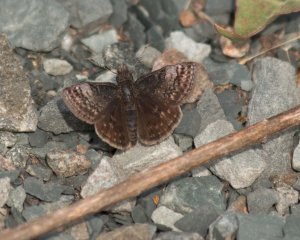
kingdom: Animalia
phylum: Arthropoda
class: Insecta
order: Lepidoptera
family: Hesperiidae
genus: Erynnis
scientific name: Erynnis icelus
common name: Dreamy Duskywing
